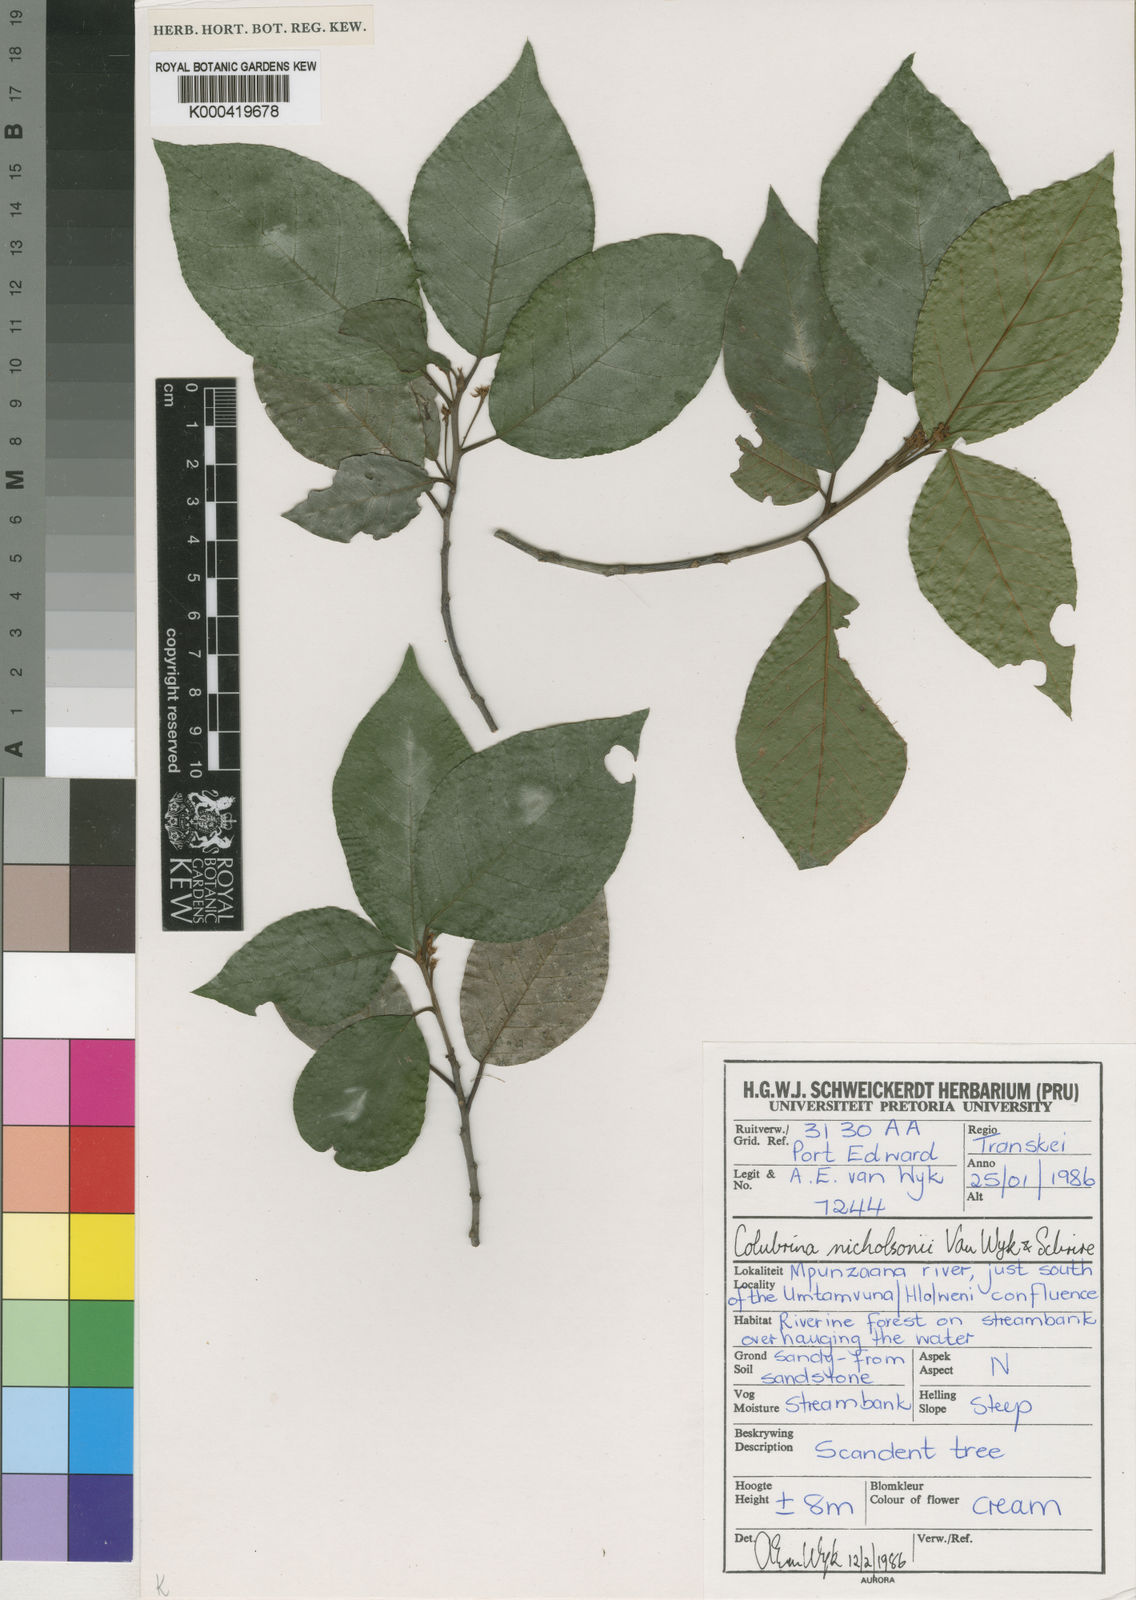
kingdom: Plantae
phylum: Tracheophyta
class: Magnoliopsida
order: Rosales
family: Rhamnaceae
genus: Colubrina
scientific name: Colubrina nicholsonii
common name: Pondo weeping thorn
